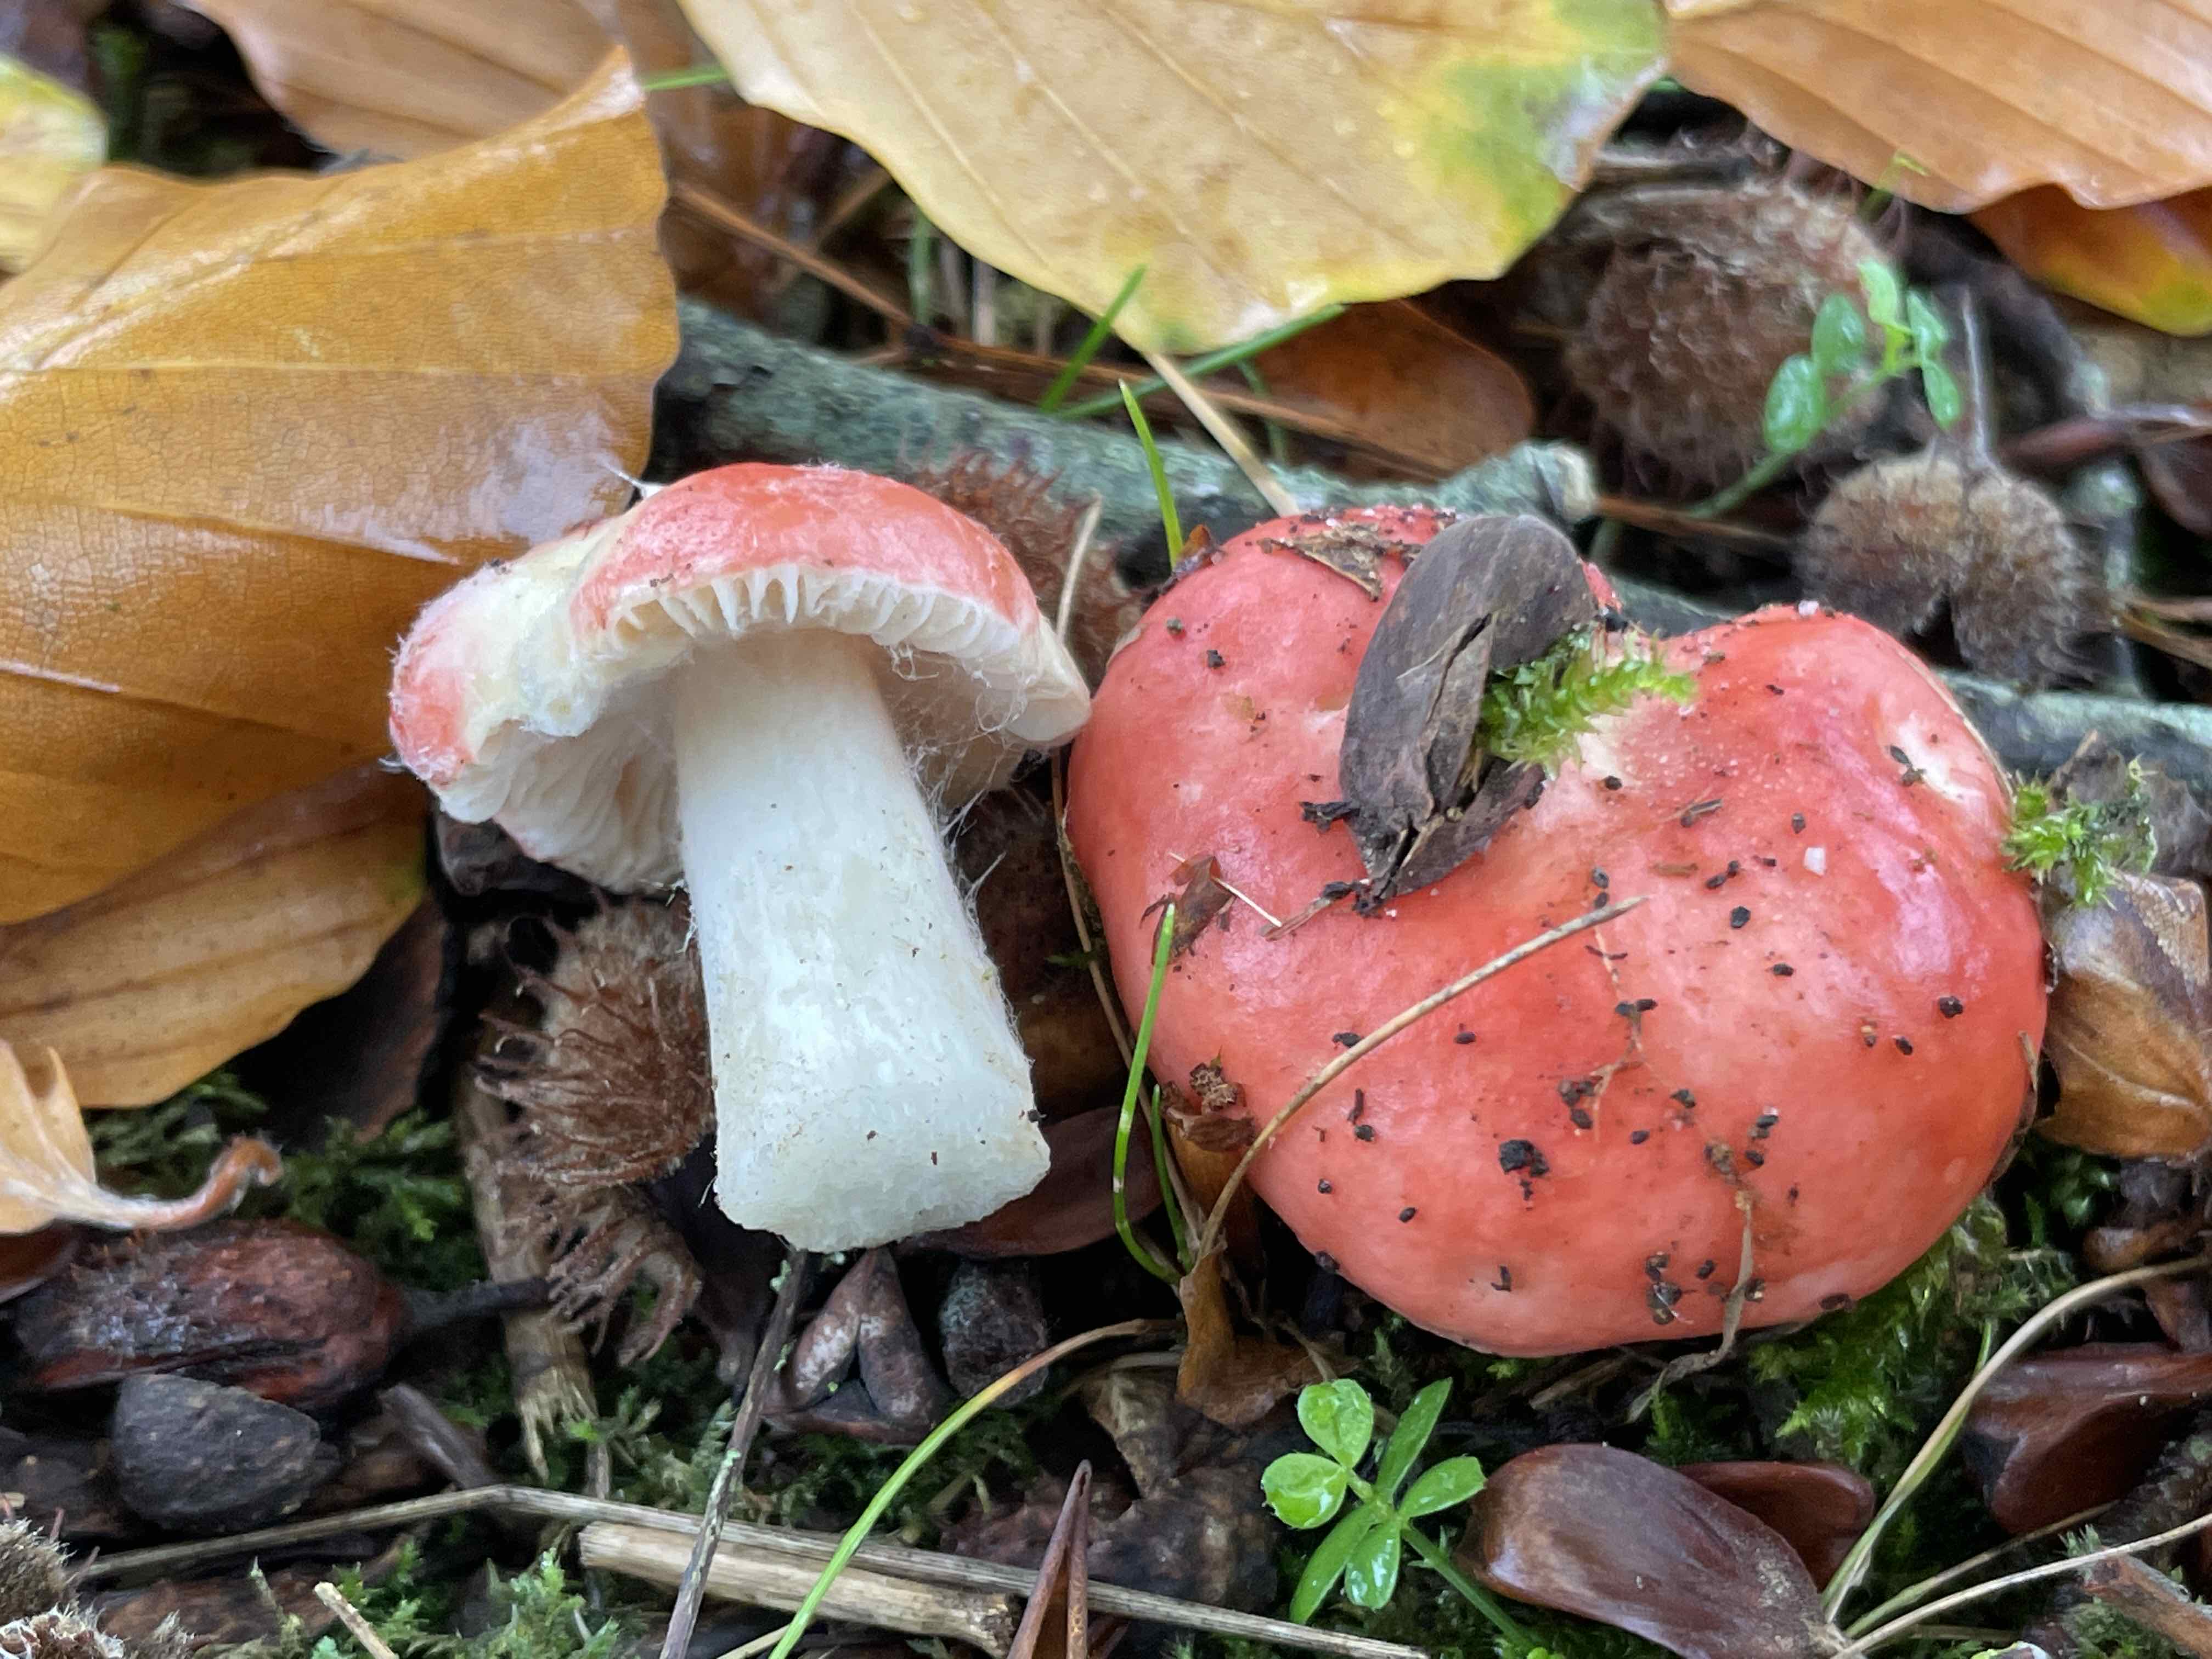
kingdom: Fungi
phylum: Basidiomycota
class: Agaricomycetes
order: Russulales
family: Russulaceae
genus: Russula
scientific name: Russula nobilis
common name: lille gift-skørhat
